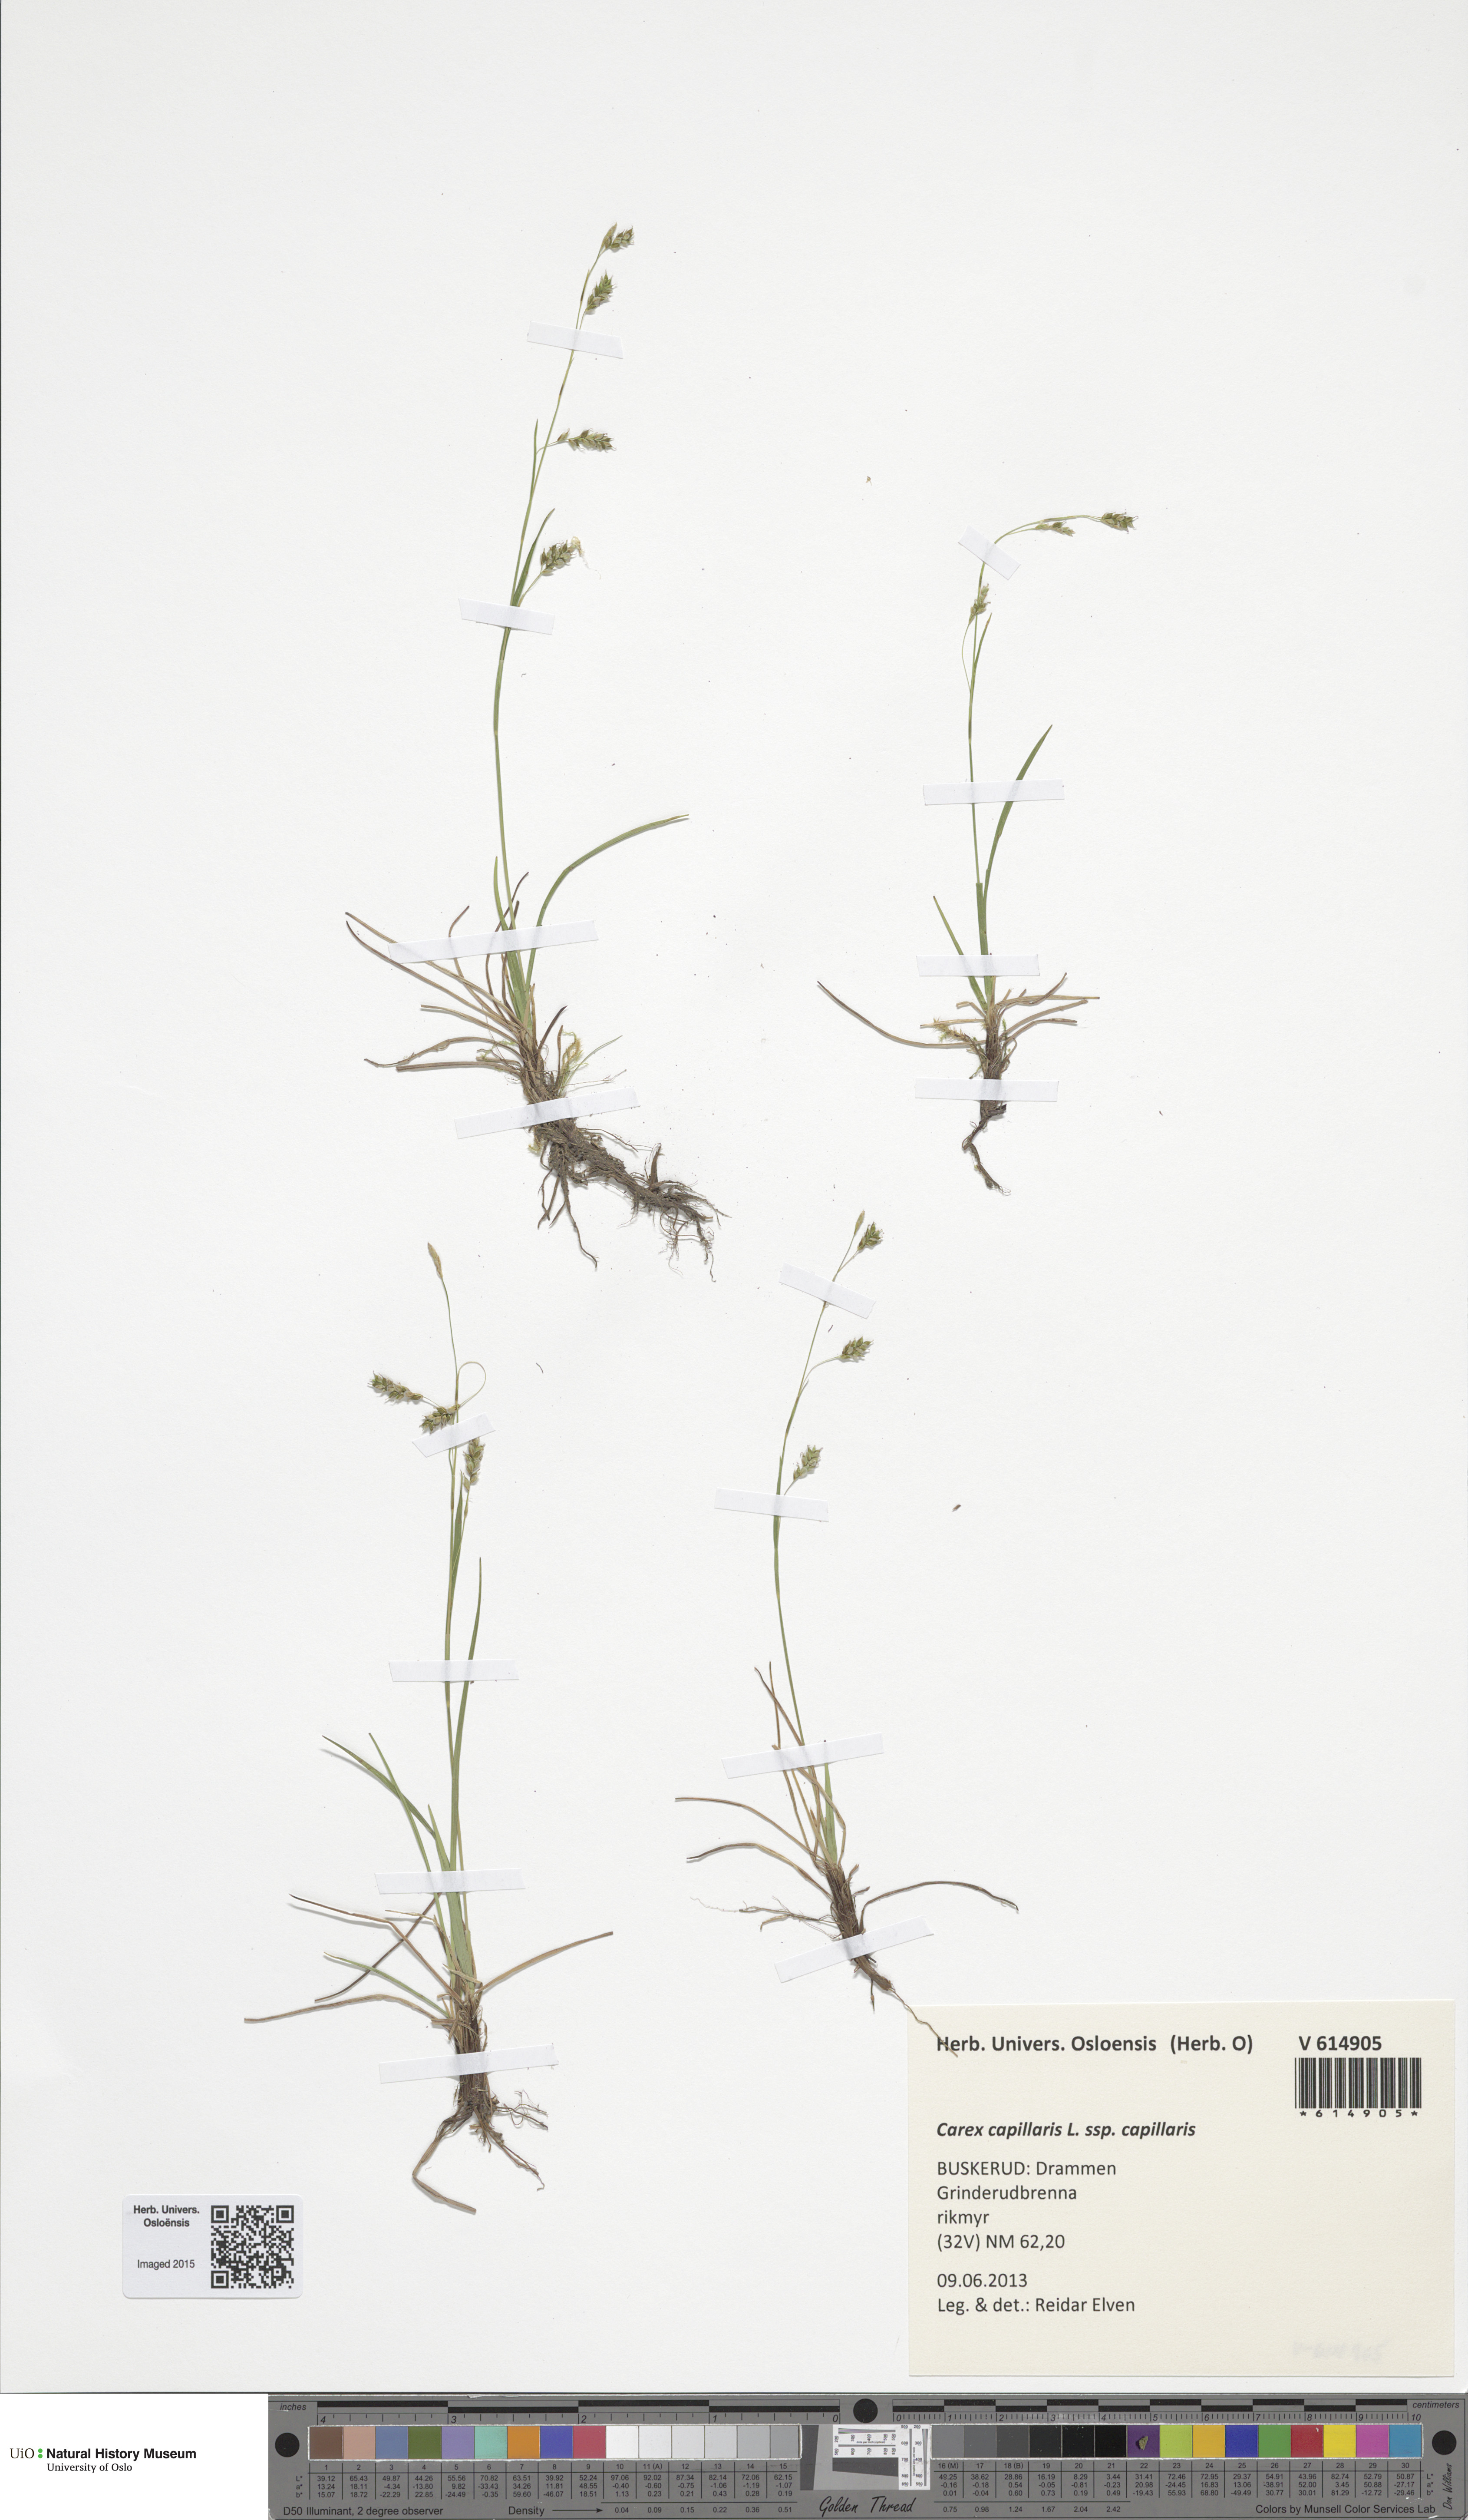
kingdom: Plantae
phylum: Tracheophyta
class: Liliopsida
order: Poales
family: Cyperaceae
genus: Carex
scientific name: Carex capillaris
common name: Hair sedge
